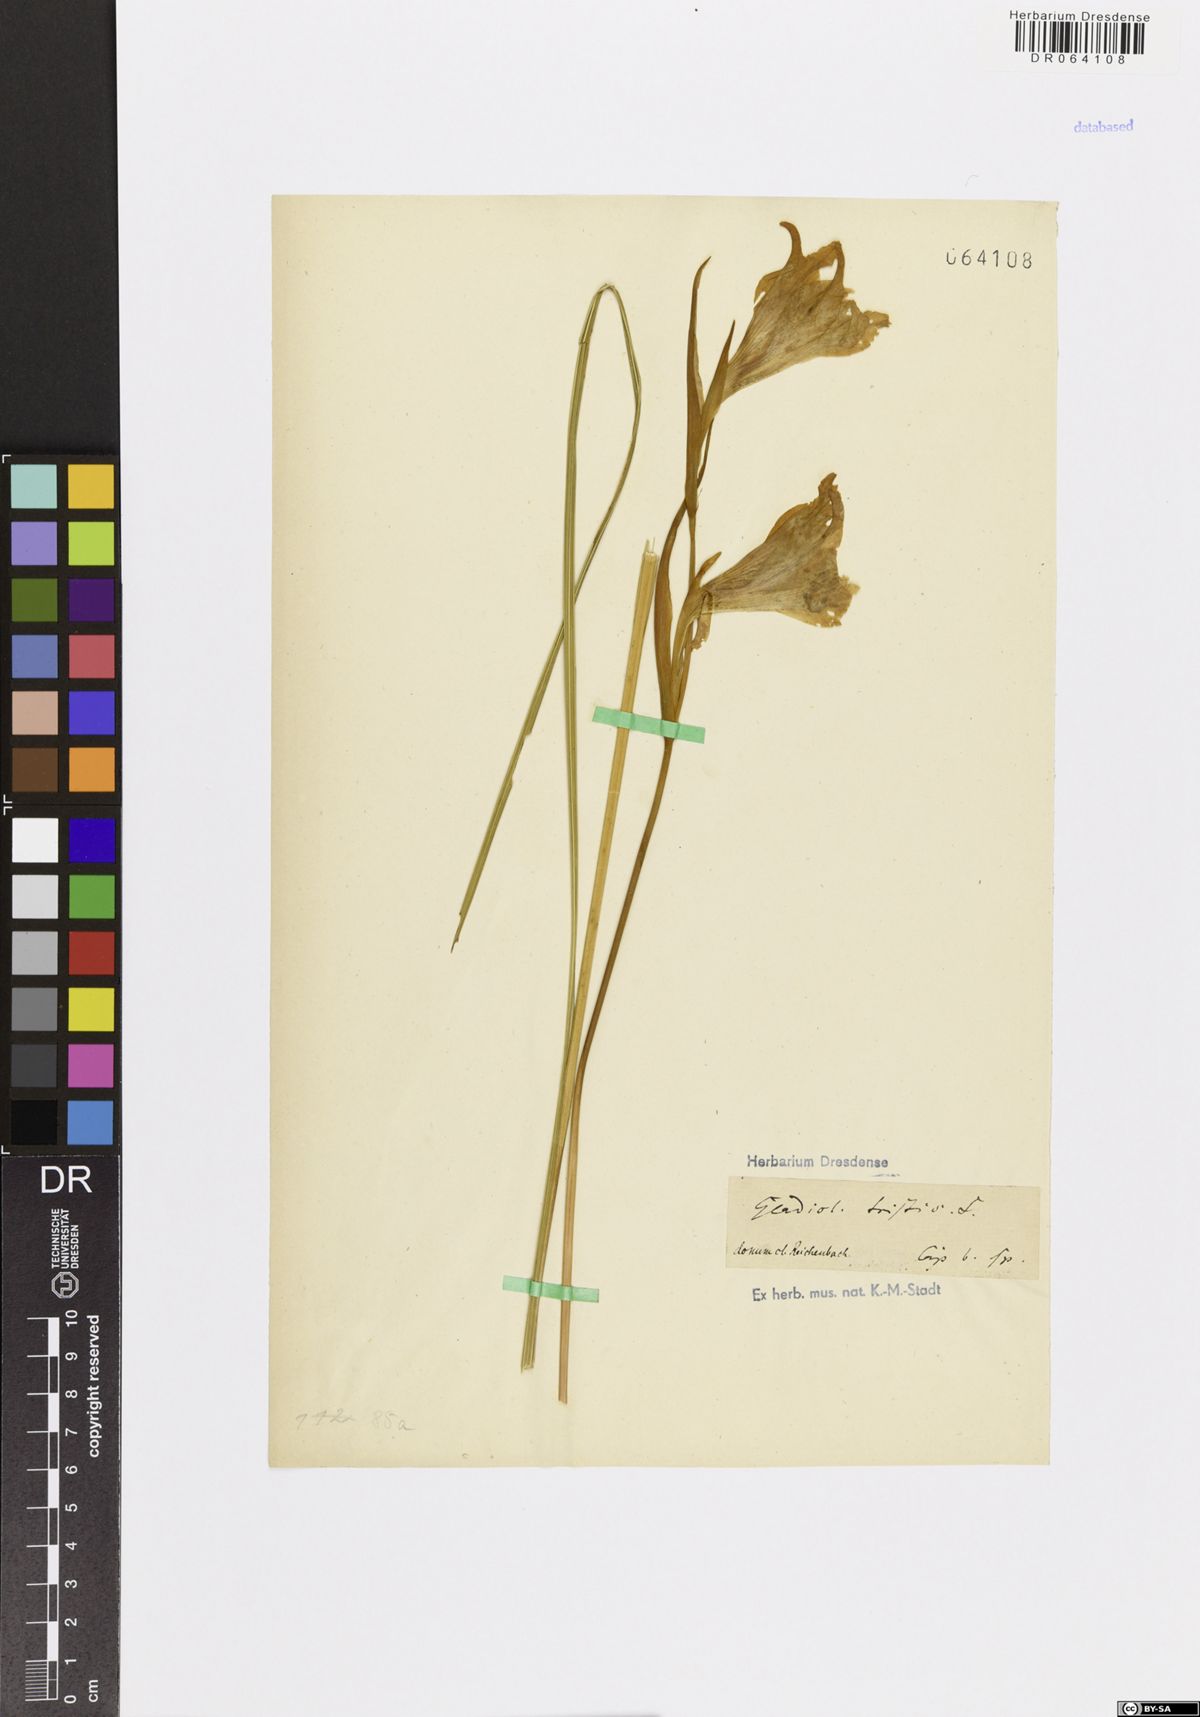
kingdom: Plantae
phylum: Tracheophyta
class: Liliopsida
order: Asparagales
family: Iridaceae
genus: Gladiolus
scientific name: Gladiolus tristis
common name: Ever-flowering gladiolus
